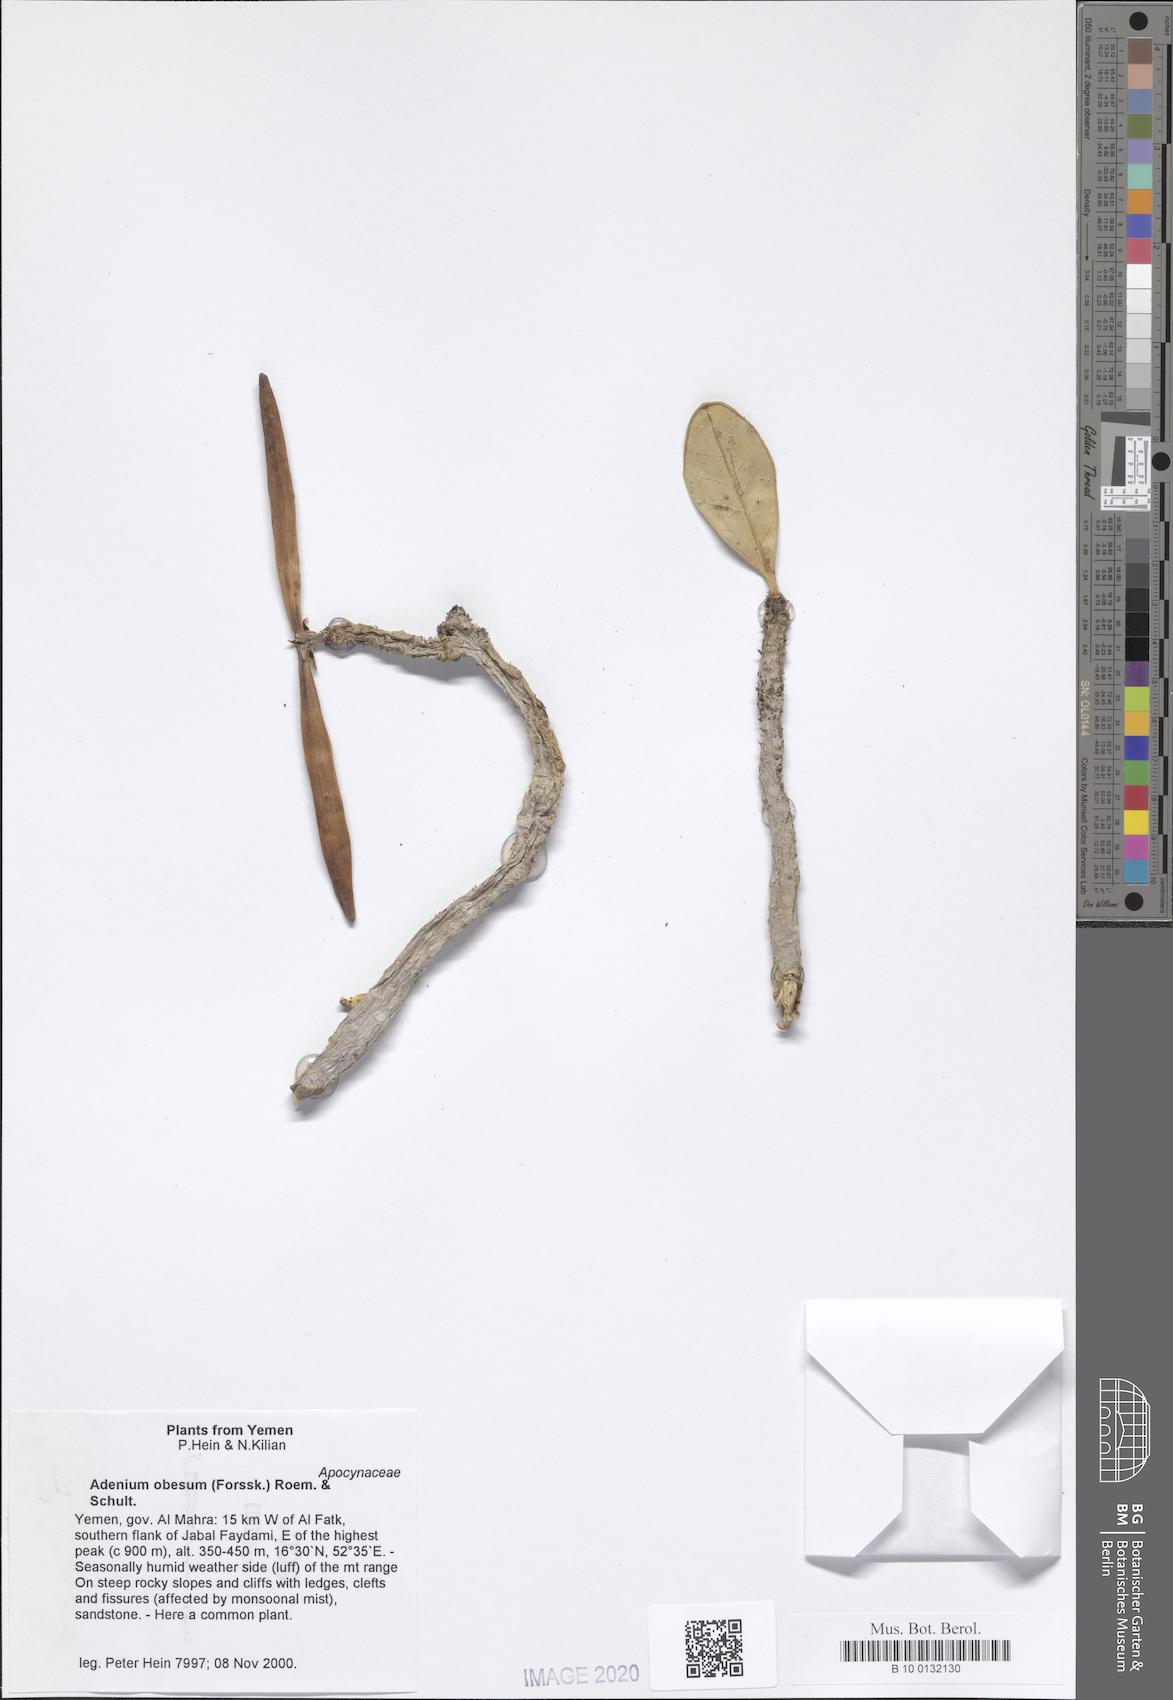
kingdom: Plantae
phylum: Tracheophyta
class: Magnoliopsida
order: Gentianales
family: Apocynaceae
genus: Adenium
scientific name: Adenium obesum
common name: Desert-rose
